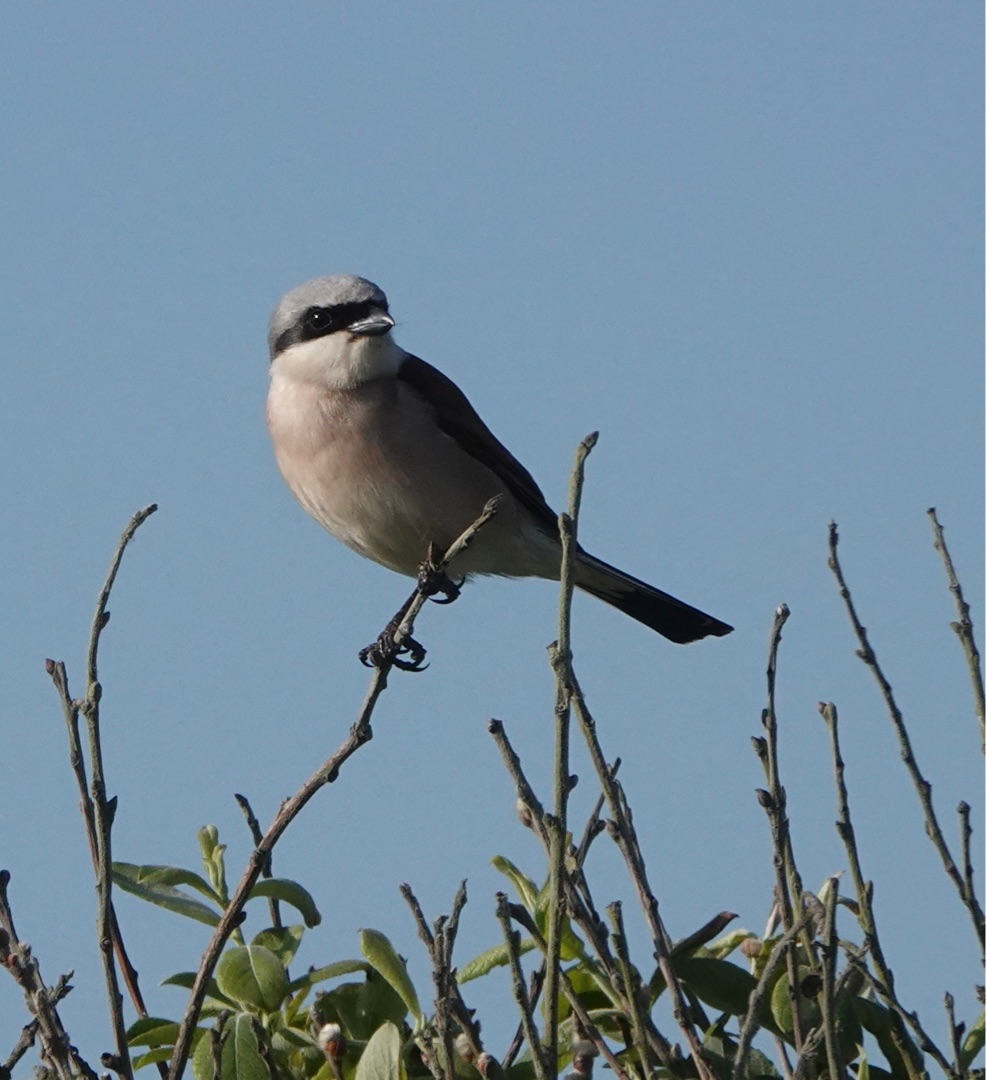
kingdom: Animalia
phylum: Chordata
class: Aves
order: Passeriformes
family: Laniidae
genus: Lanius
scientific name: Lanius collurio
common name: Rødrygget tornskade
